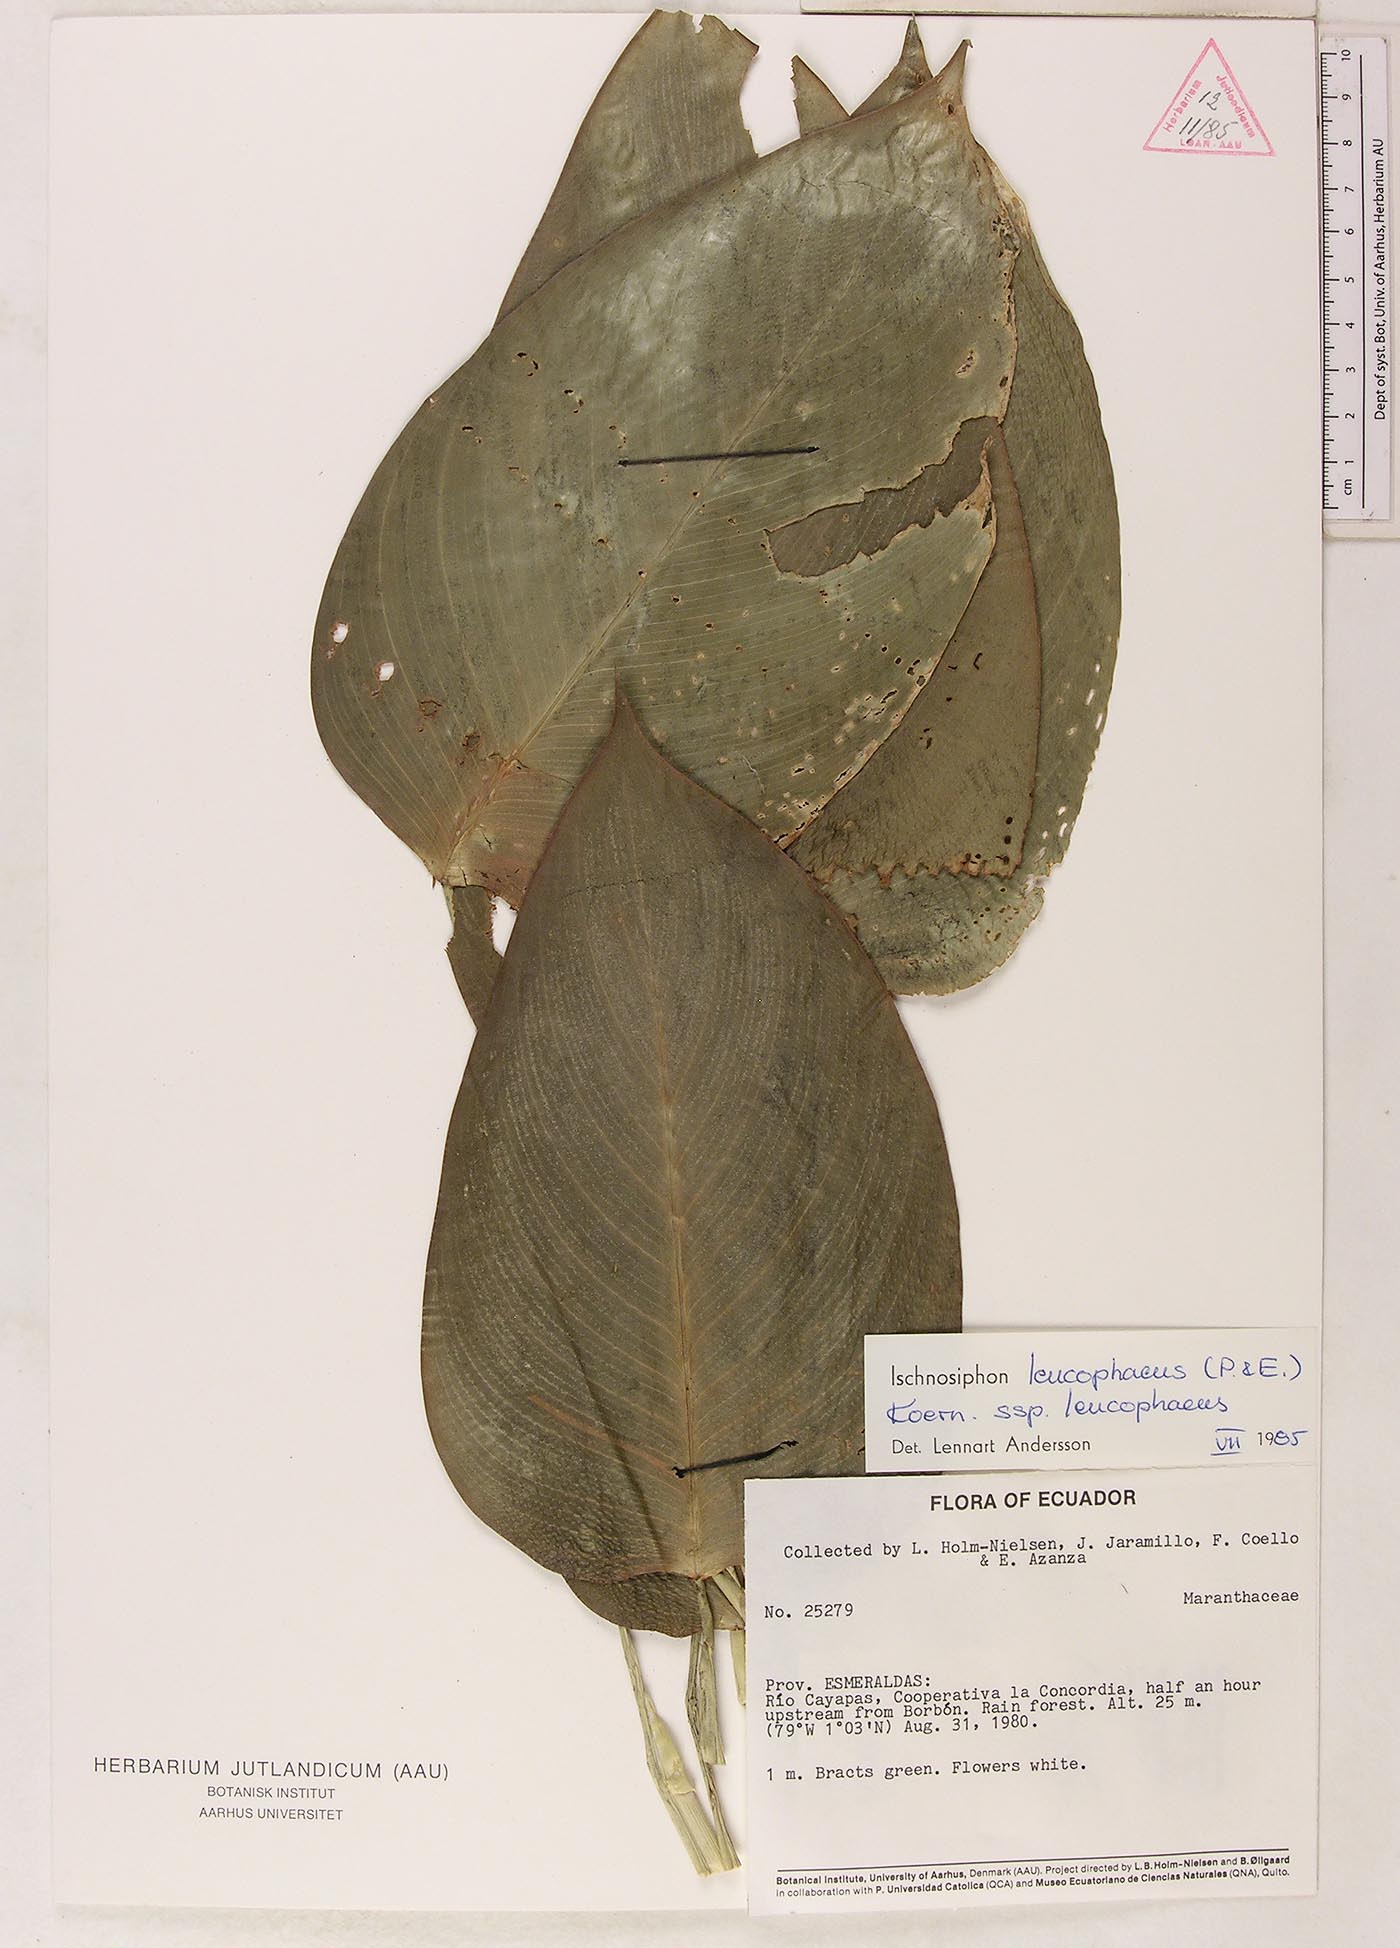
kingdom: Plantae
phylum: Tracheophyta
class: Liliopsida
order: Zingiberales
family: Marantaceae
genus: Ischnosiphon
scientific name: Ischnosiphon leucophaeus
